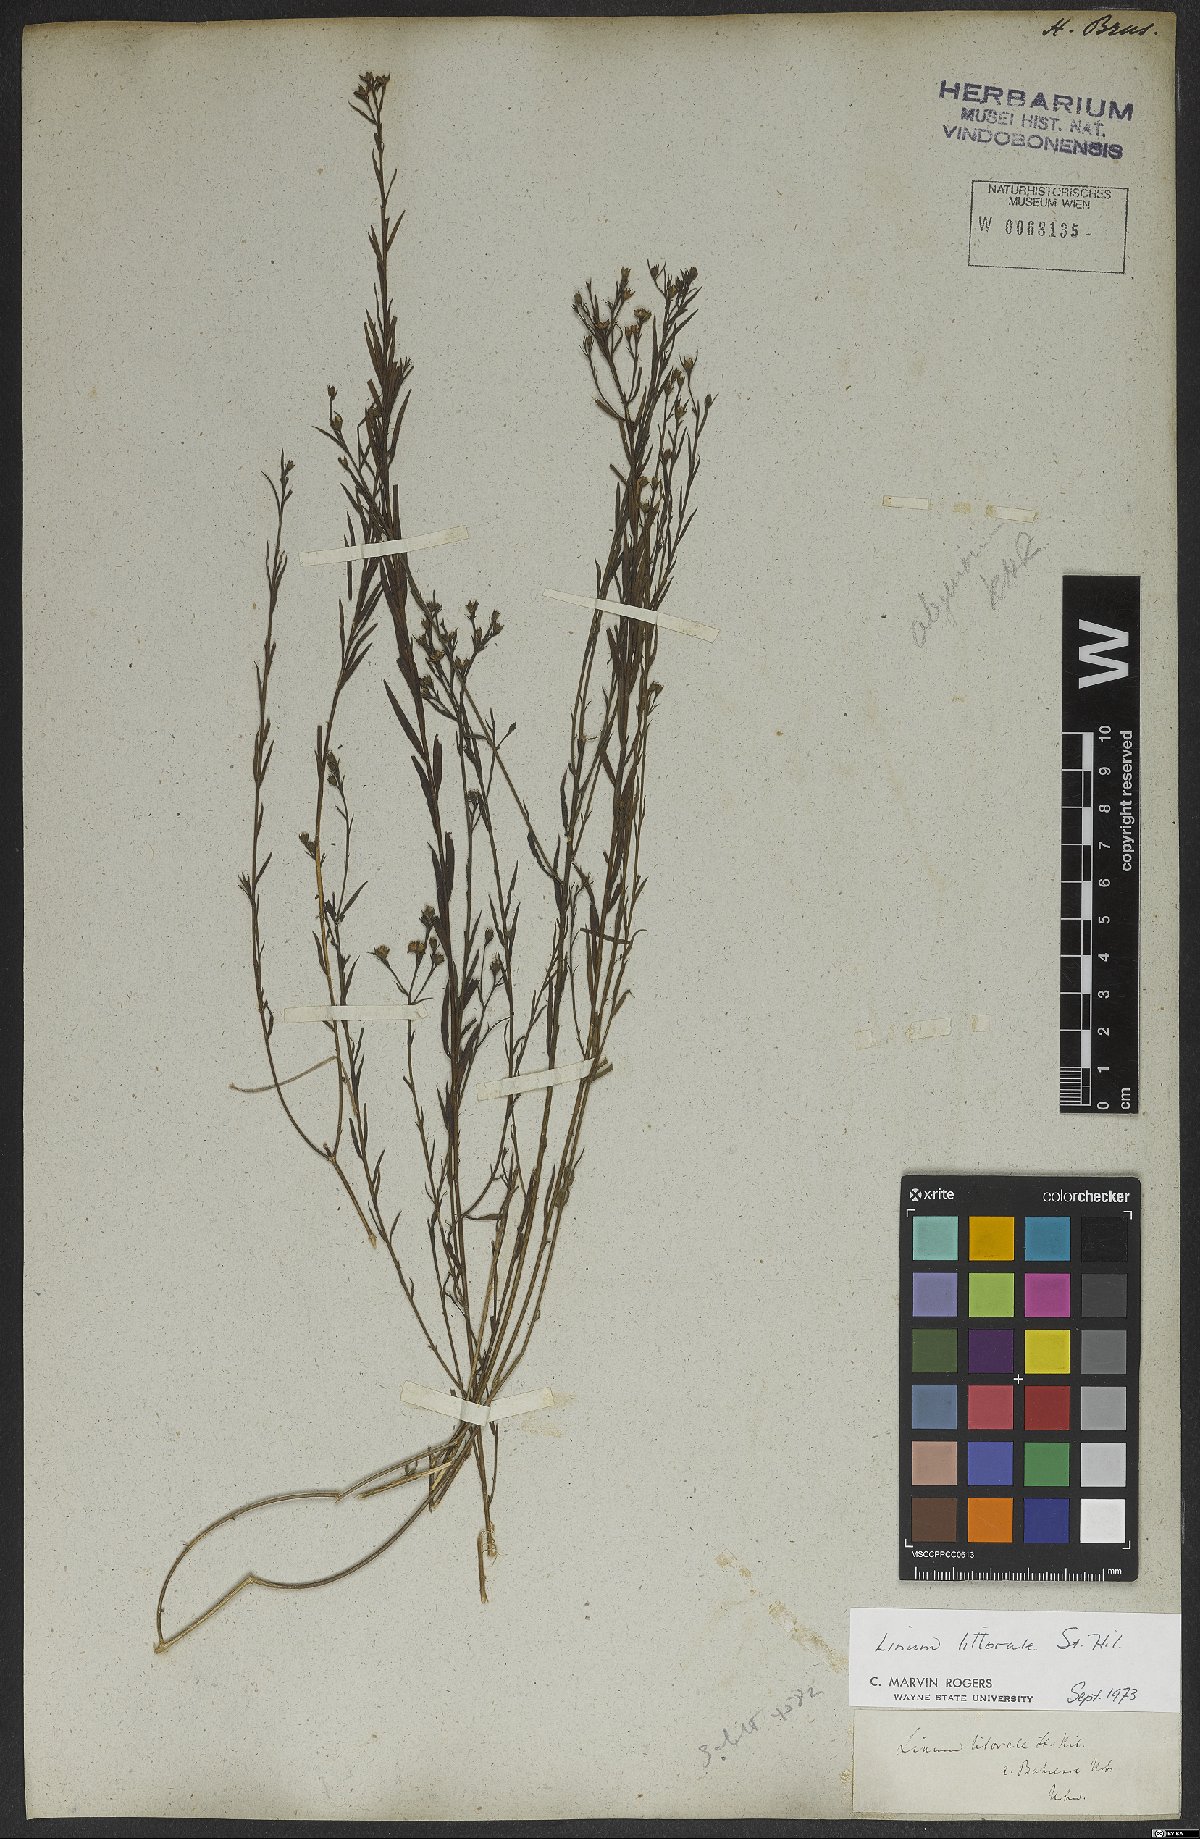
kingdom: Plantae
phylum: Tracheophyta
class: Magnoliopsida
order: Malpighiales
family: Linaceae
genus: Linum
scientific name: Linum littorale
